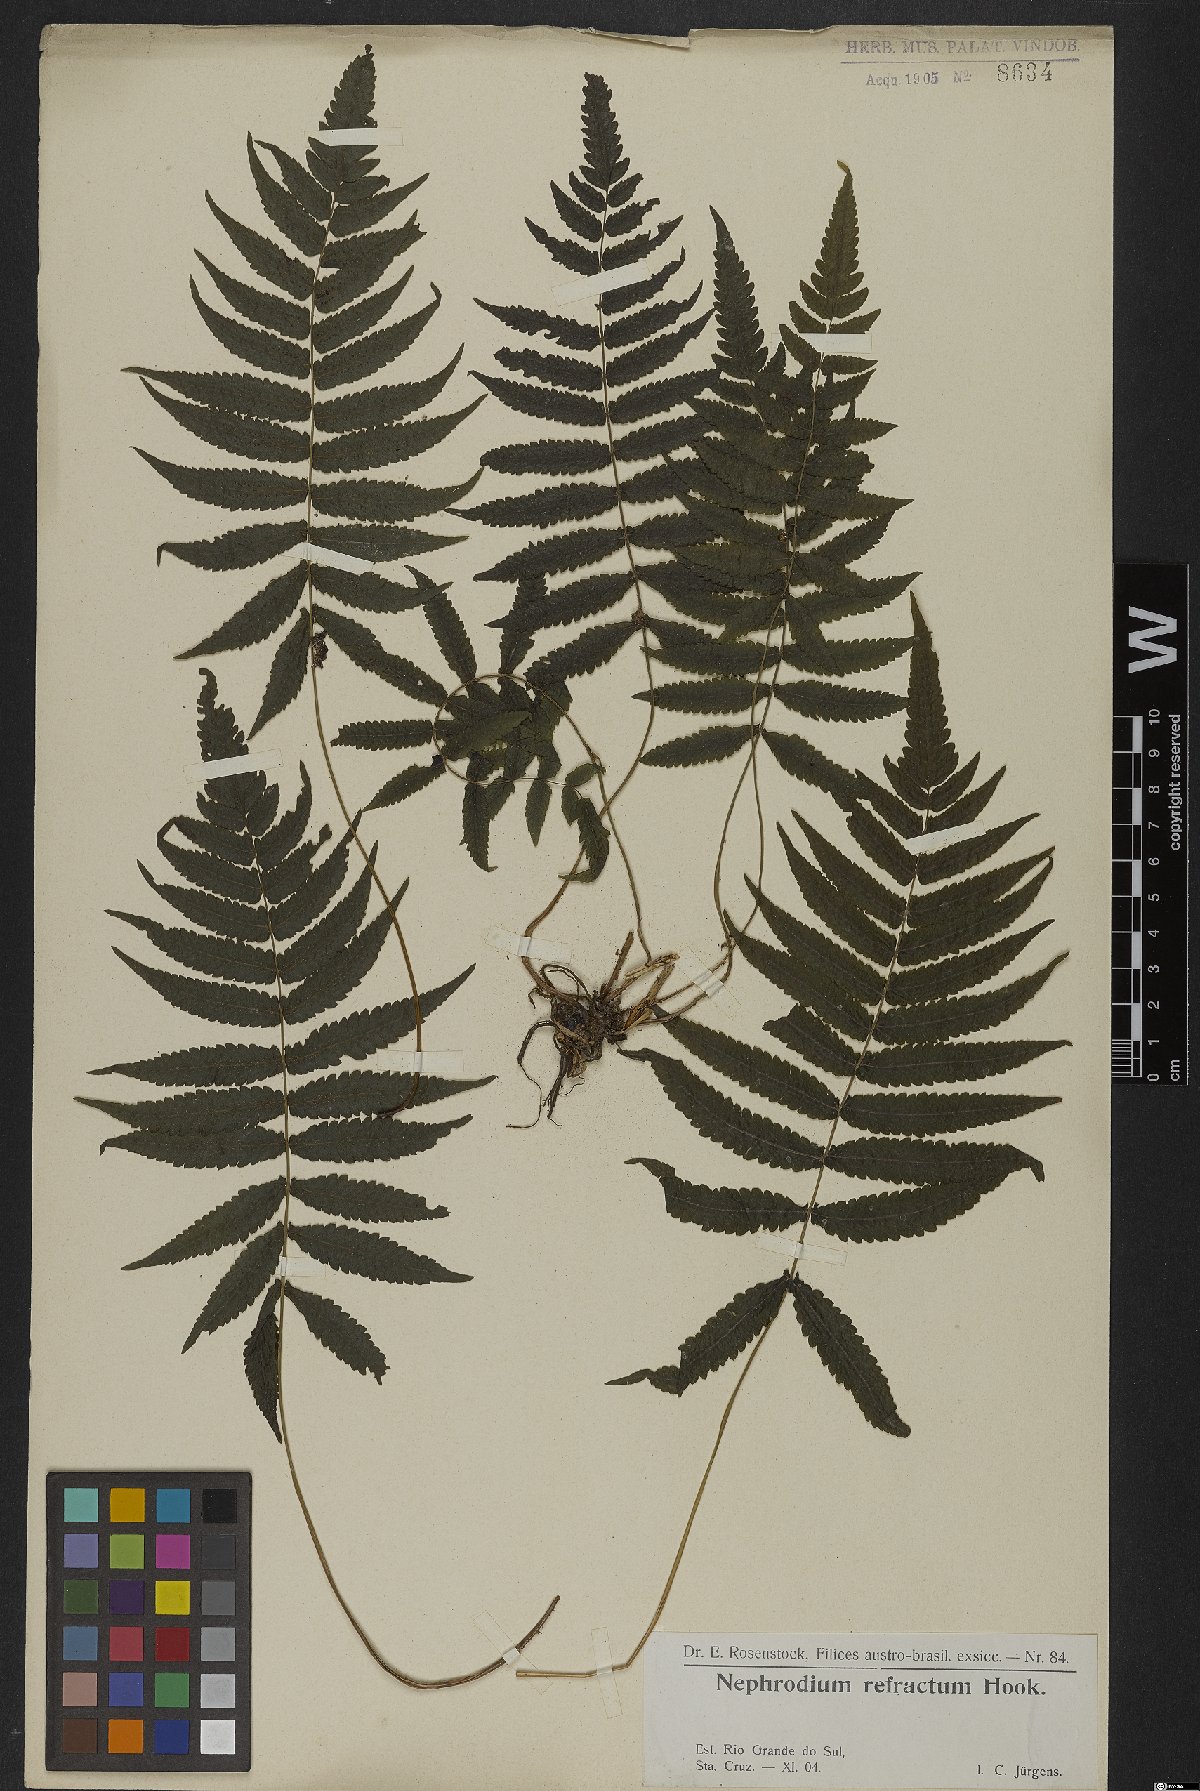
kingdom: Plantae
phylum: Tracheophyta
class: Polypodiopsida
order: Polypodiales
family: Thelypteridaceae
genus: Goniopteris
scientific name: Goniopteris refracta
